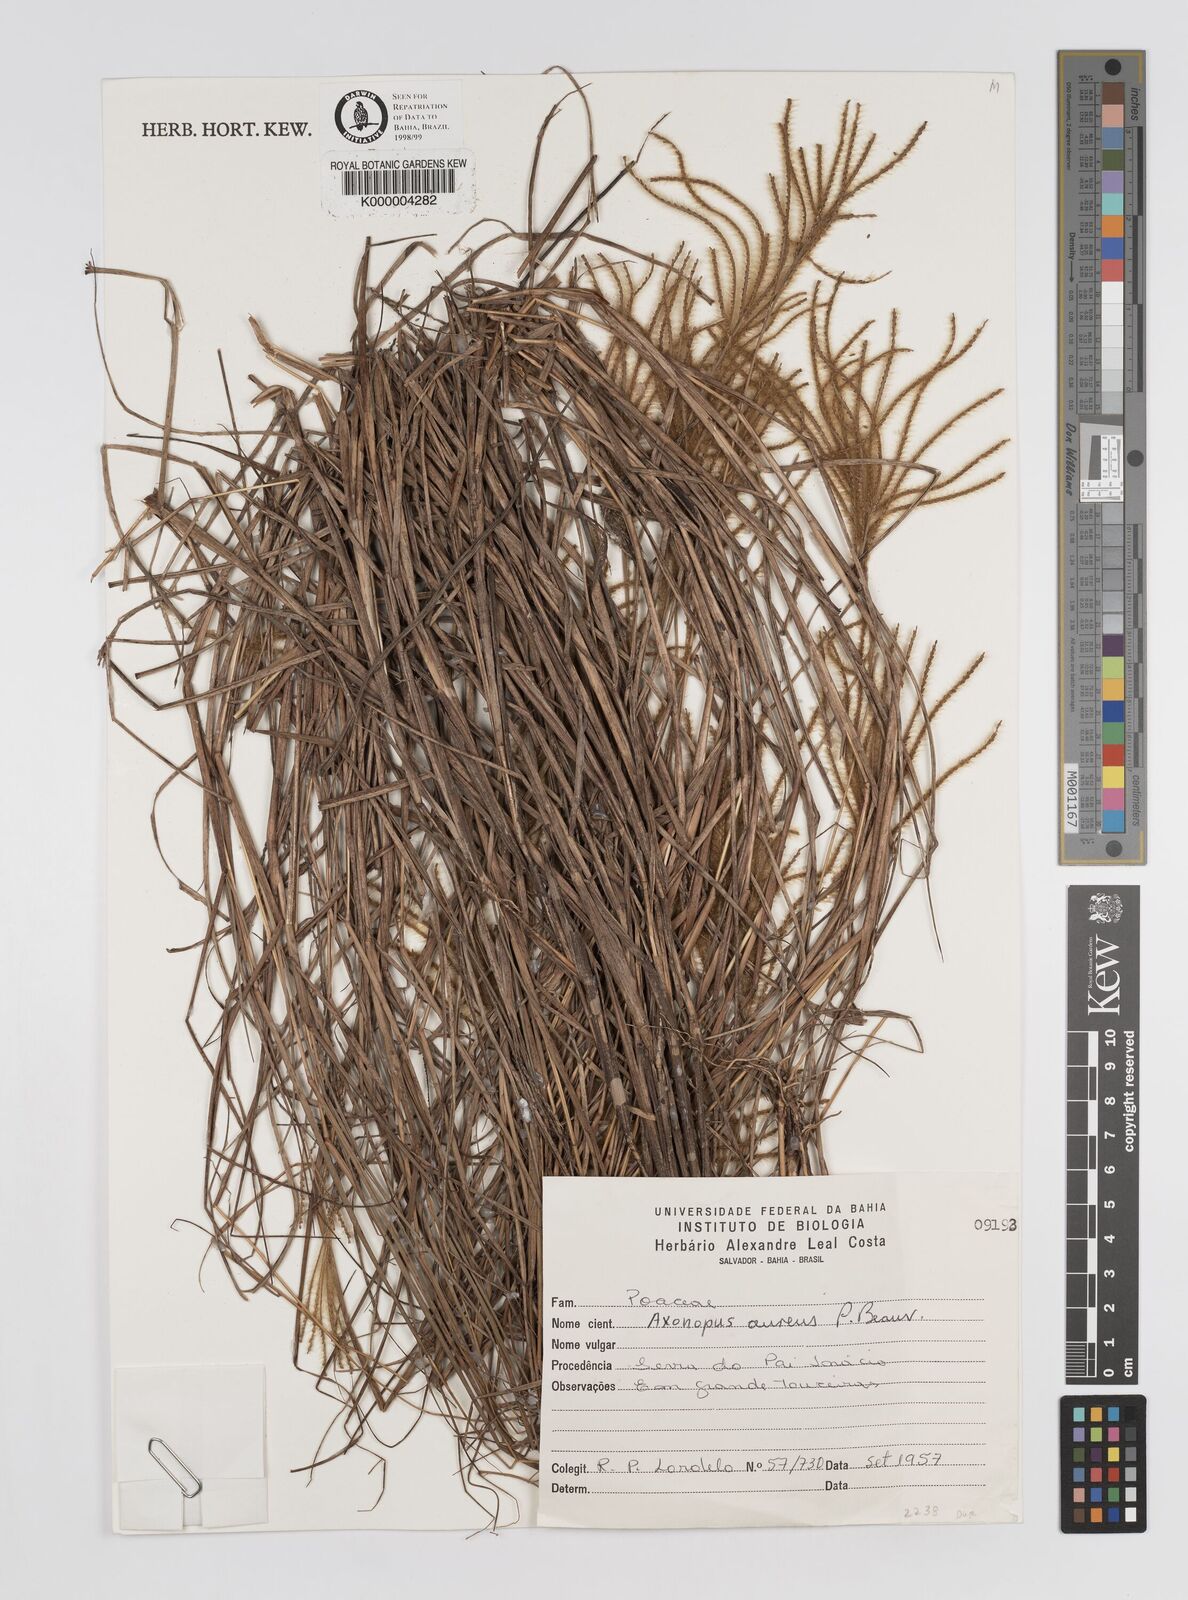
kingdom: Plantae
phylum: Tracheophyta
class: Liliopsida
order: Poales
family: Poaceae
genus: Axonopus
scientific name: Axonopus aureus
